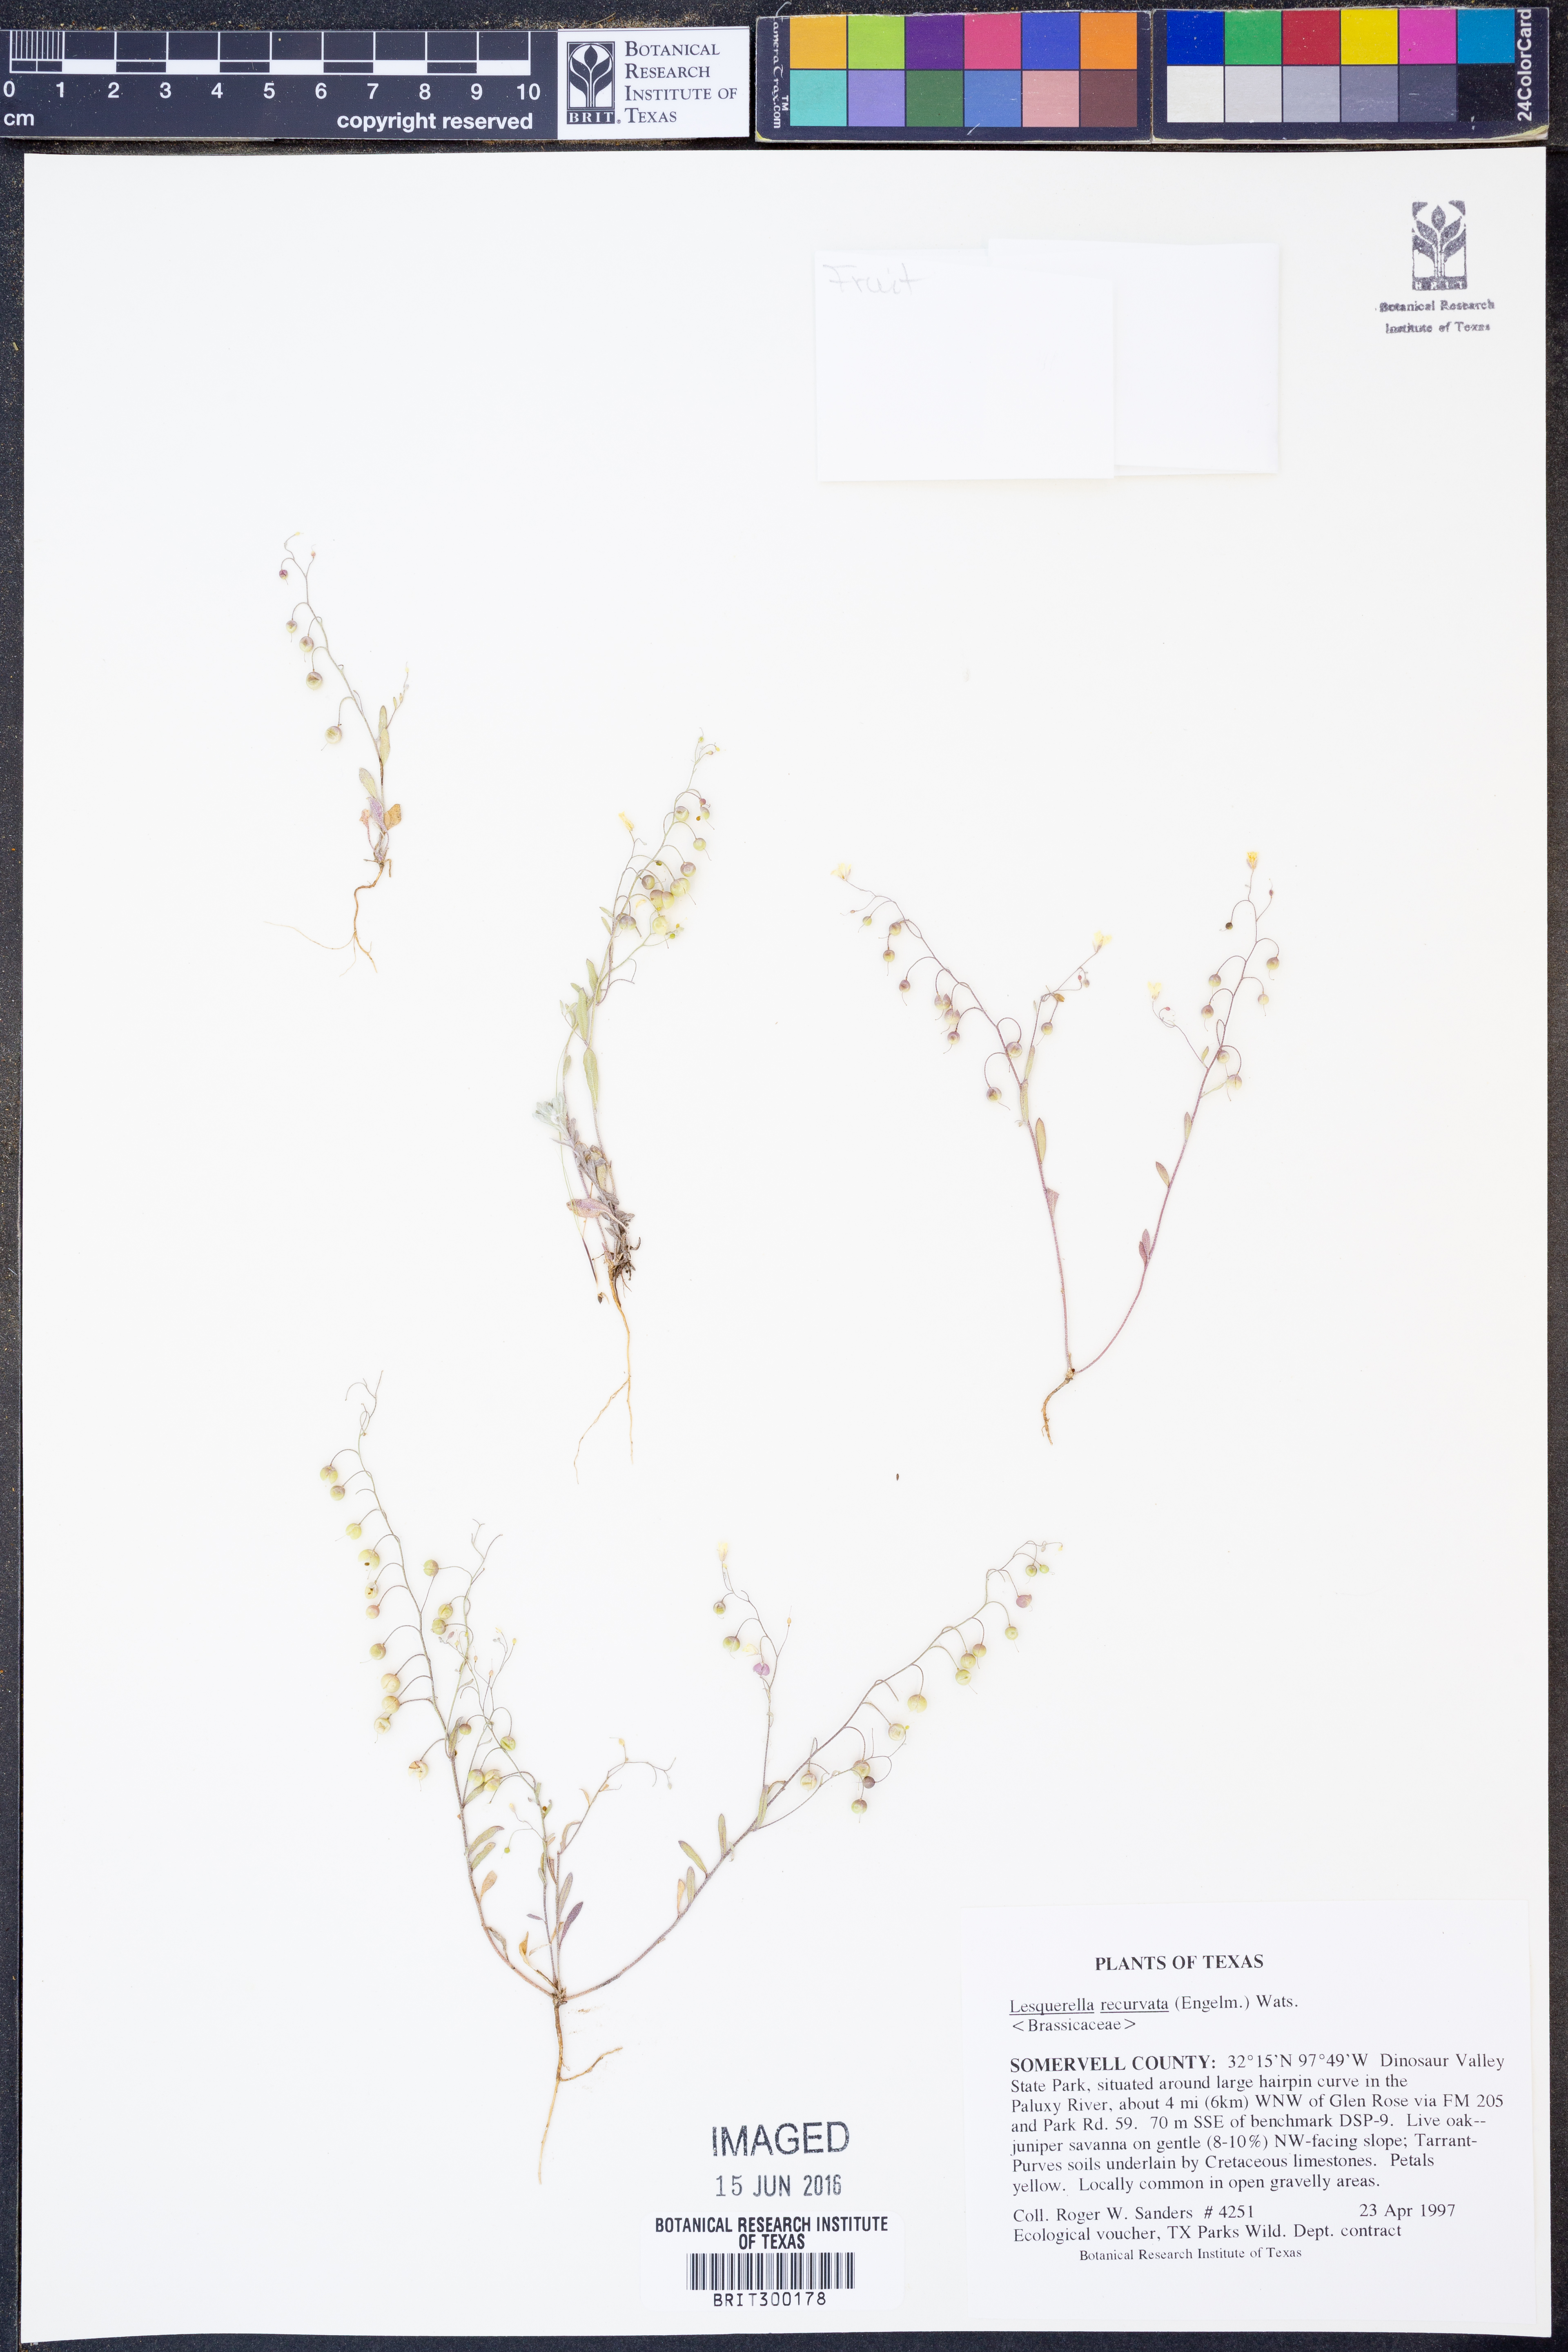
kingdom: Plantae
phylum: Tracheophyta
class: Magnoliopsida
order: Brassicales
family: Brassicaceae
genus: Physaria
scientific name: Physaria recurvata
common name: Gaslight bladderpod
